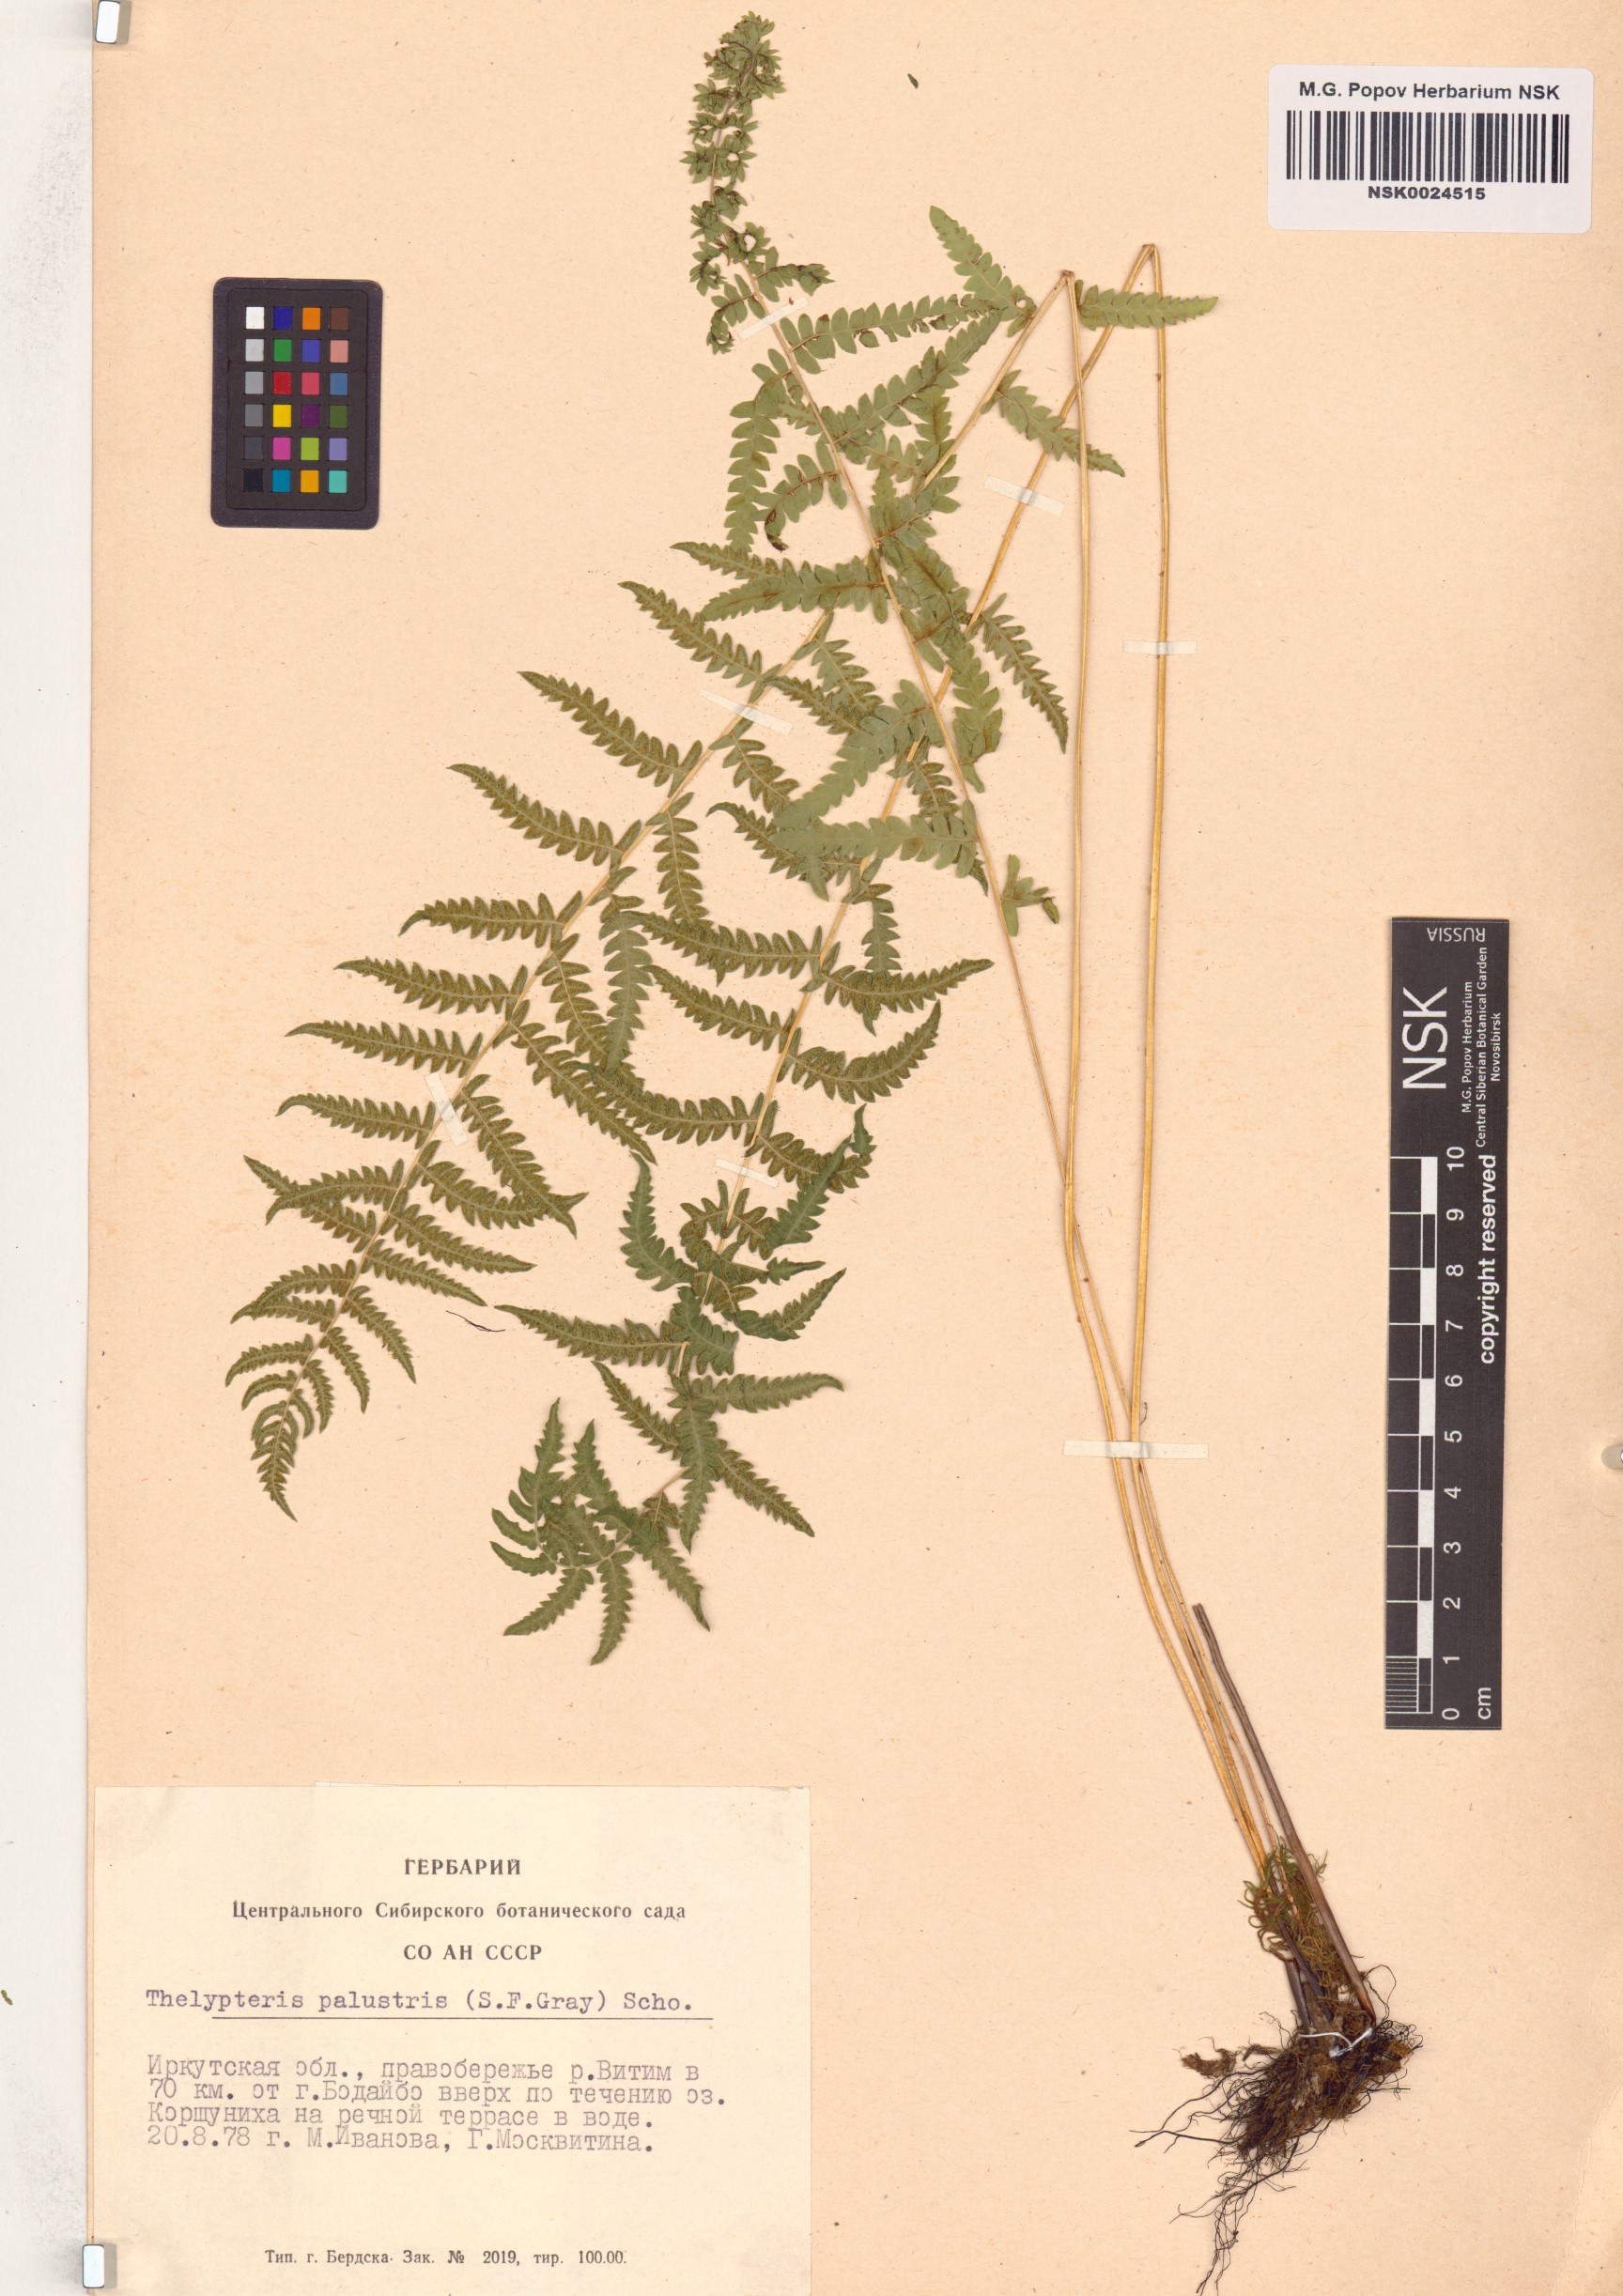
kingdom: Plantae
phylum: Tracheophyta
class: Polypodiopsida
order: Polypodiales
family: Thelypteridaceae
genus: Thelypteris
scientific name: Thelypteris palustris
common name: Marsh fern
